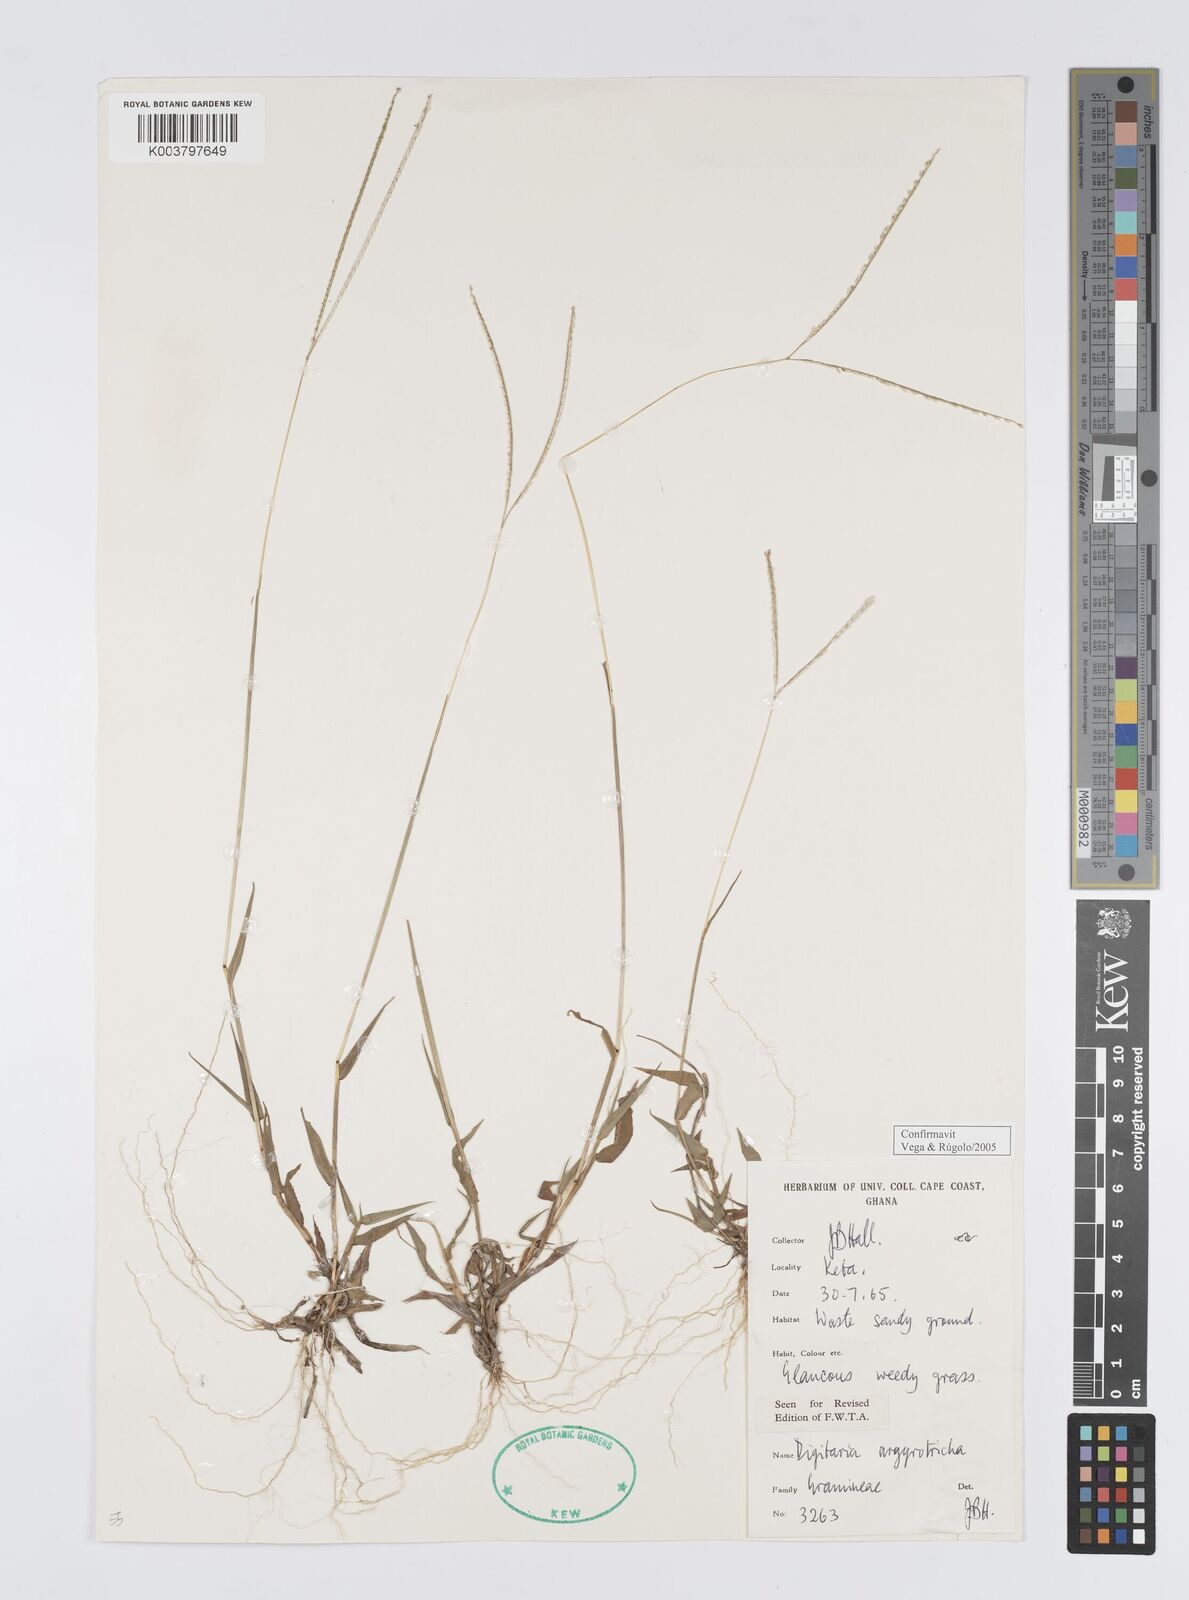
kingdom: Plantae
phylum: Tracheophyta
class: Liliopsida
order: Poales
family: Poaceae
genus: Digitaria
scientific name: Digitaria argyrotricha
